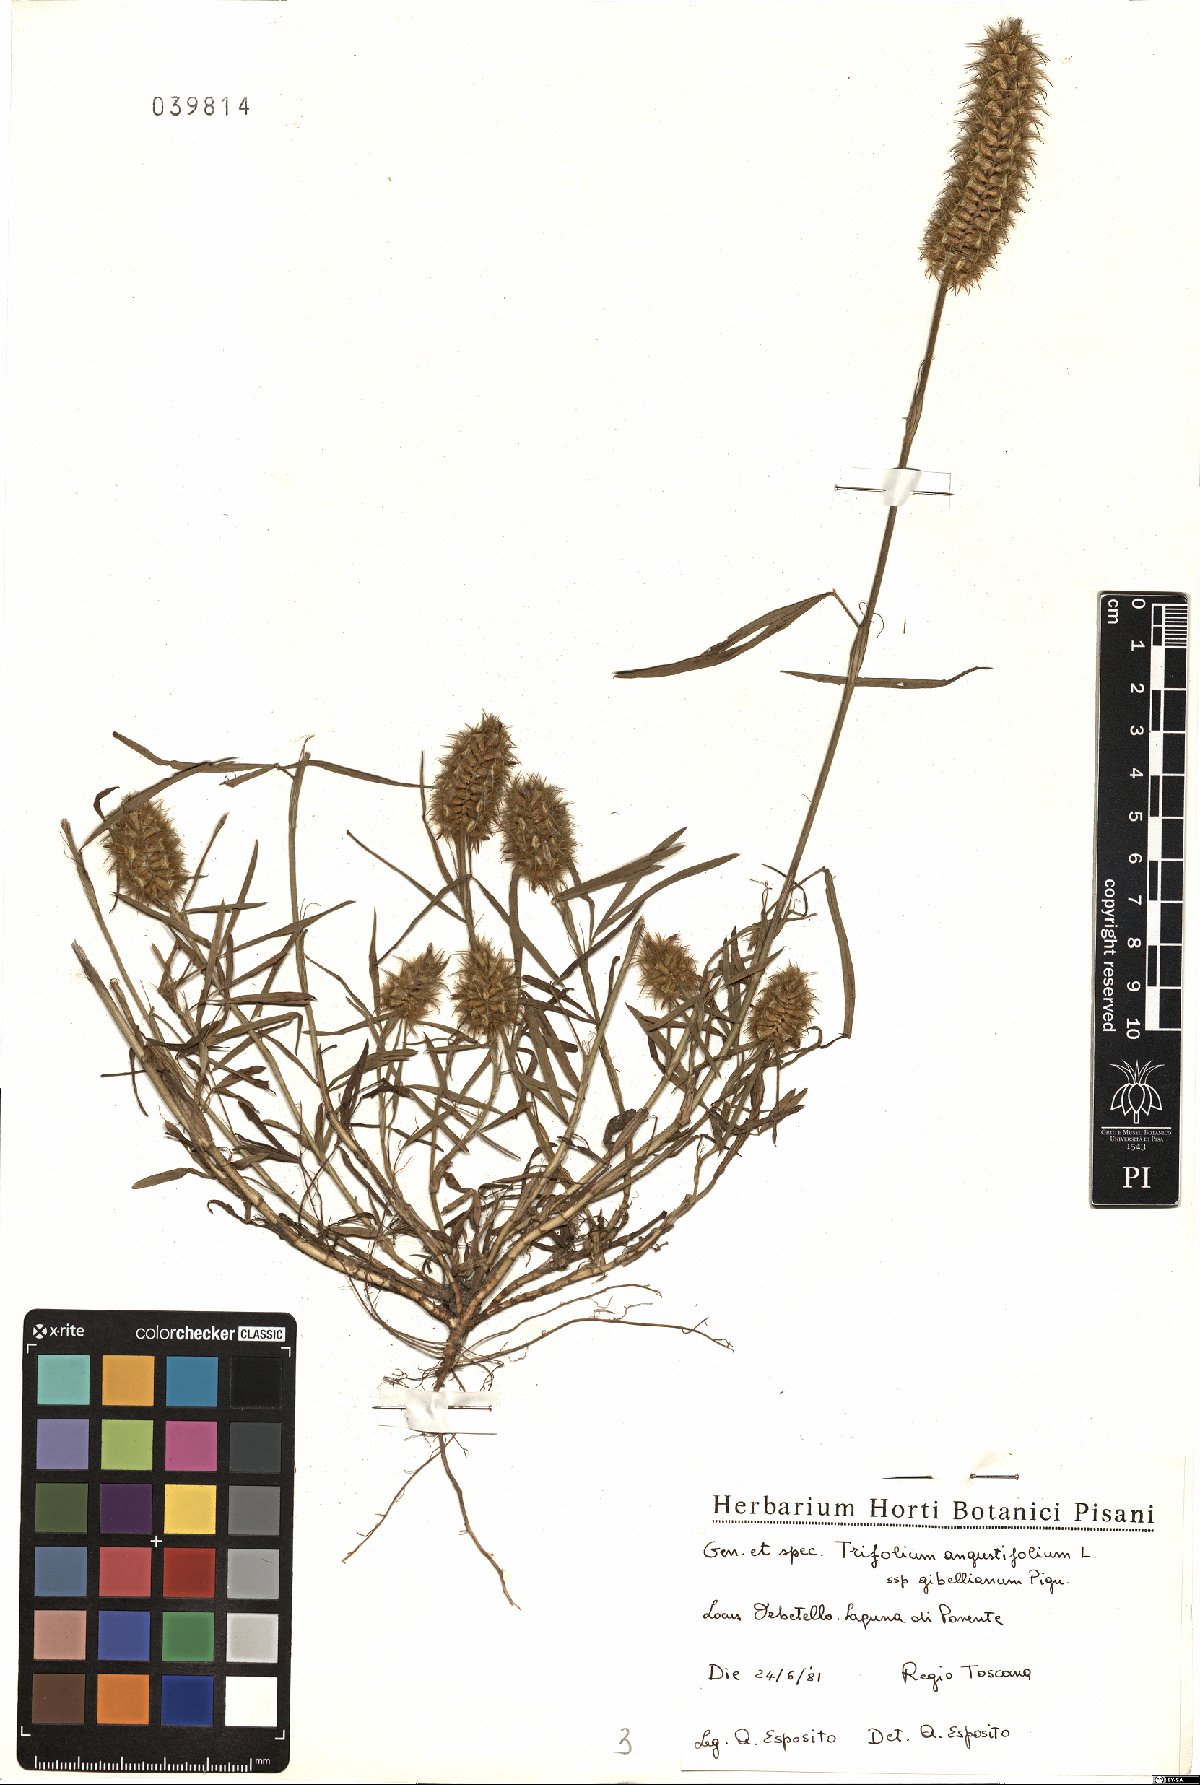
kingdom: Plantae
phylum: Tracheophyta
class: Magnoliopsida
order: Fabales
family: Fabaceae
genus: Trifolium
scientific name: Trifolium infamia-ponertii
